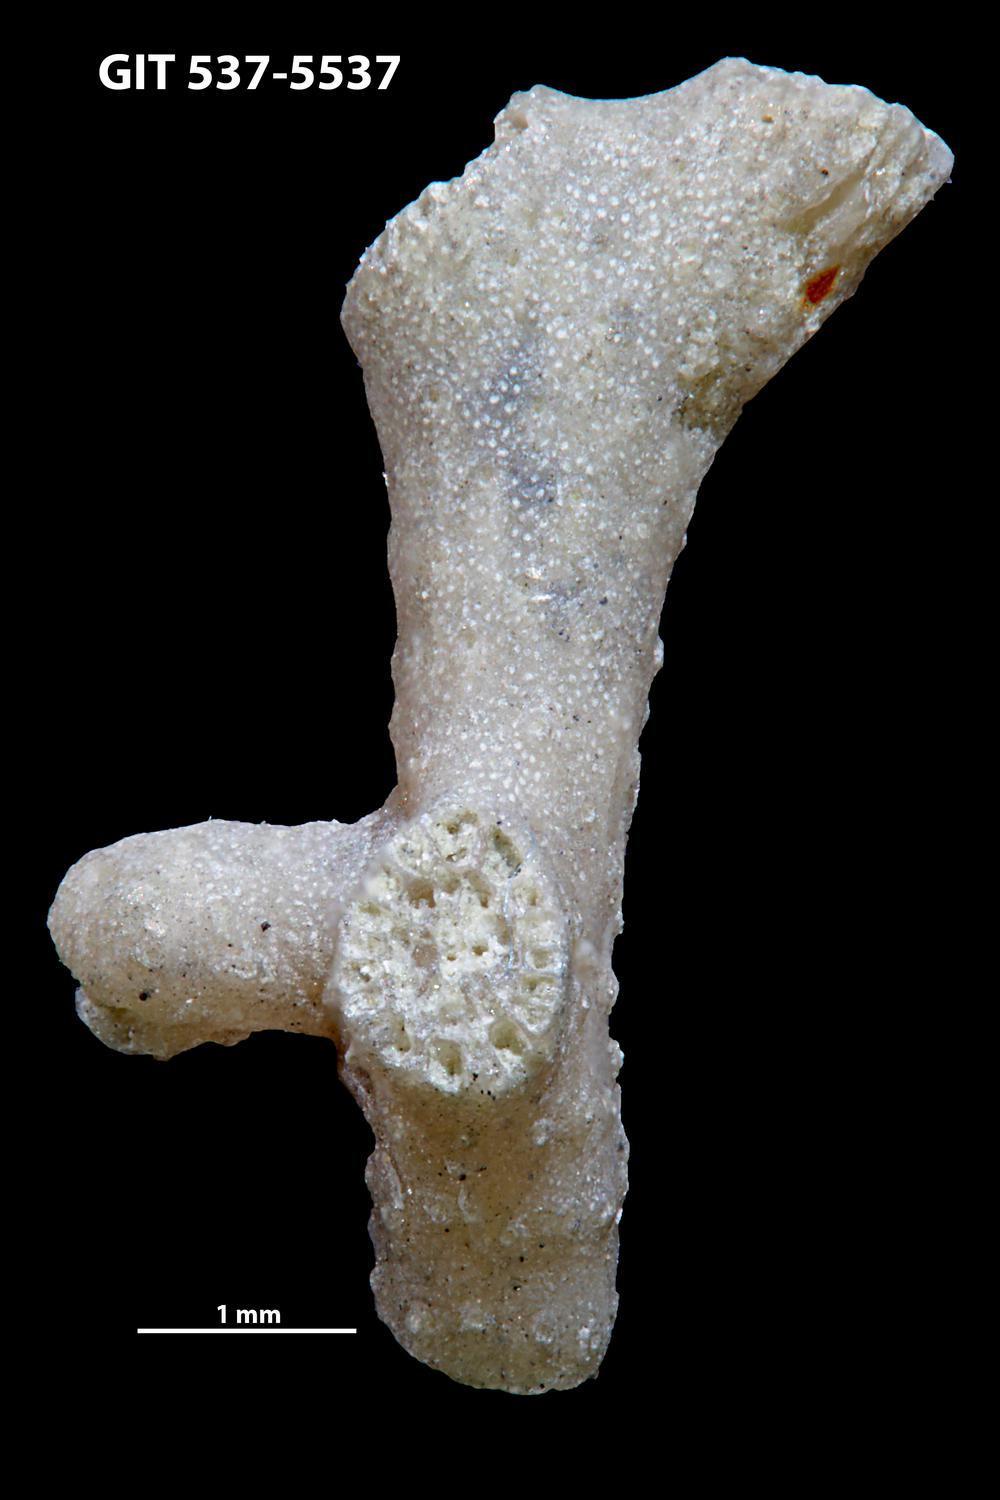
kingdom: Animalia
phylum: Bryozoa
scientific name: Bryozoa
